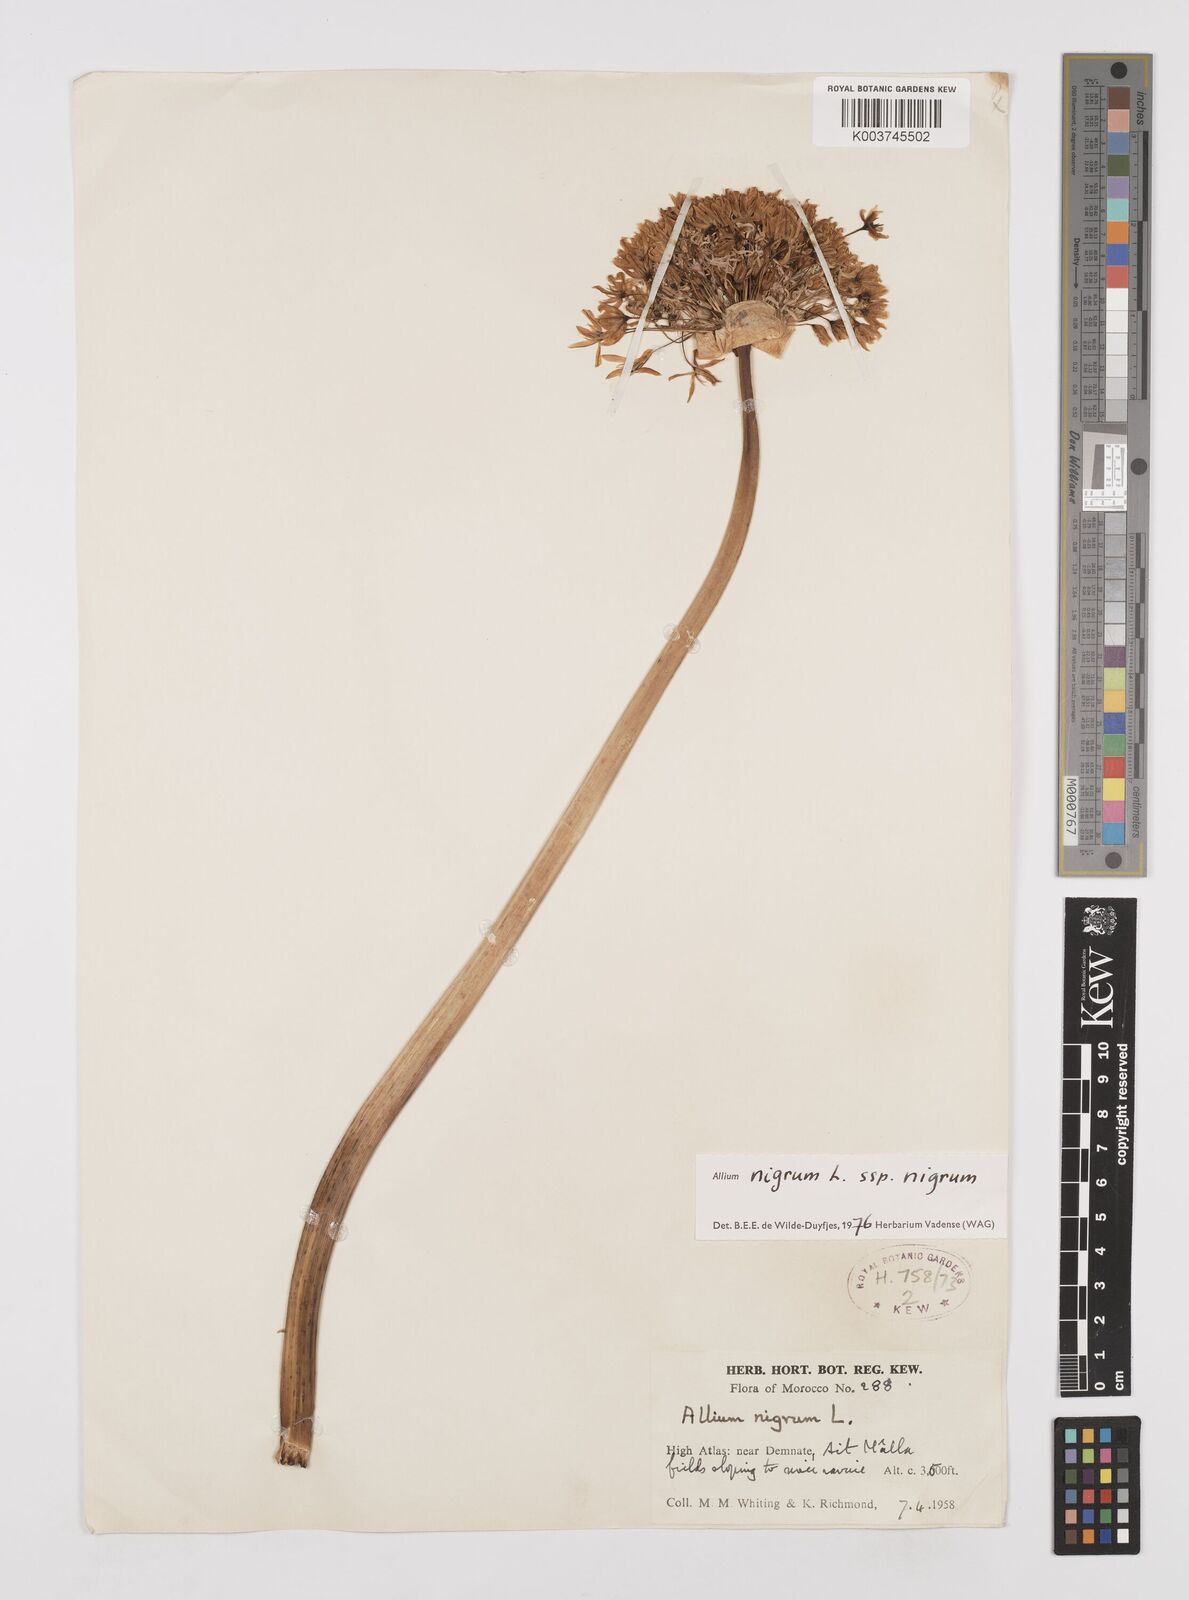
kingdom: Plantae
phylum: Tracheophyta
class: Liliopsida
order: Asparagales
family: Amaryllidaceae
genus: Allium
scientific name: Allium nigrum
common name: Black garlic
